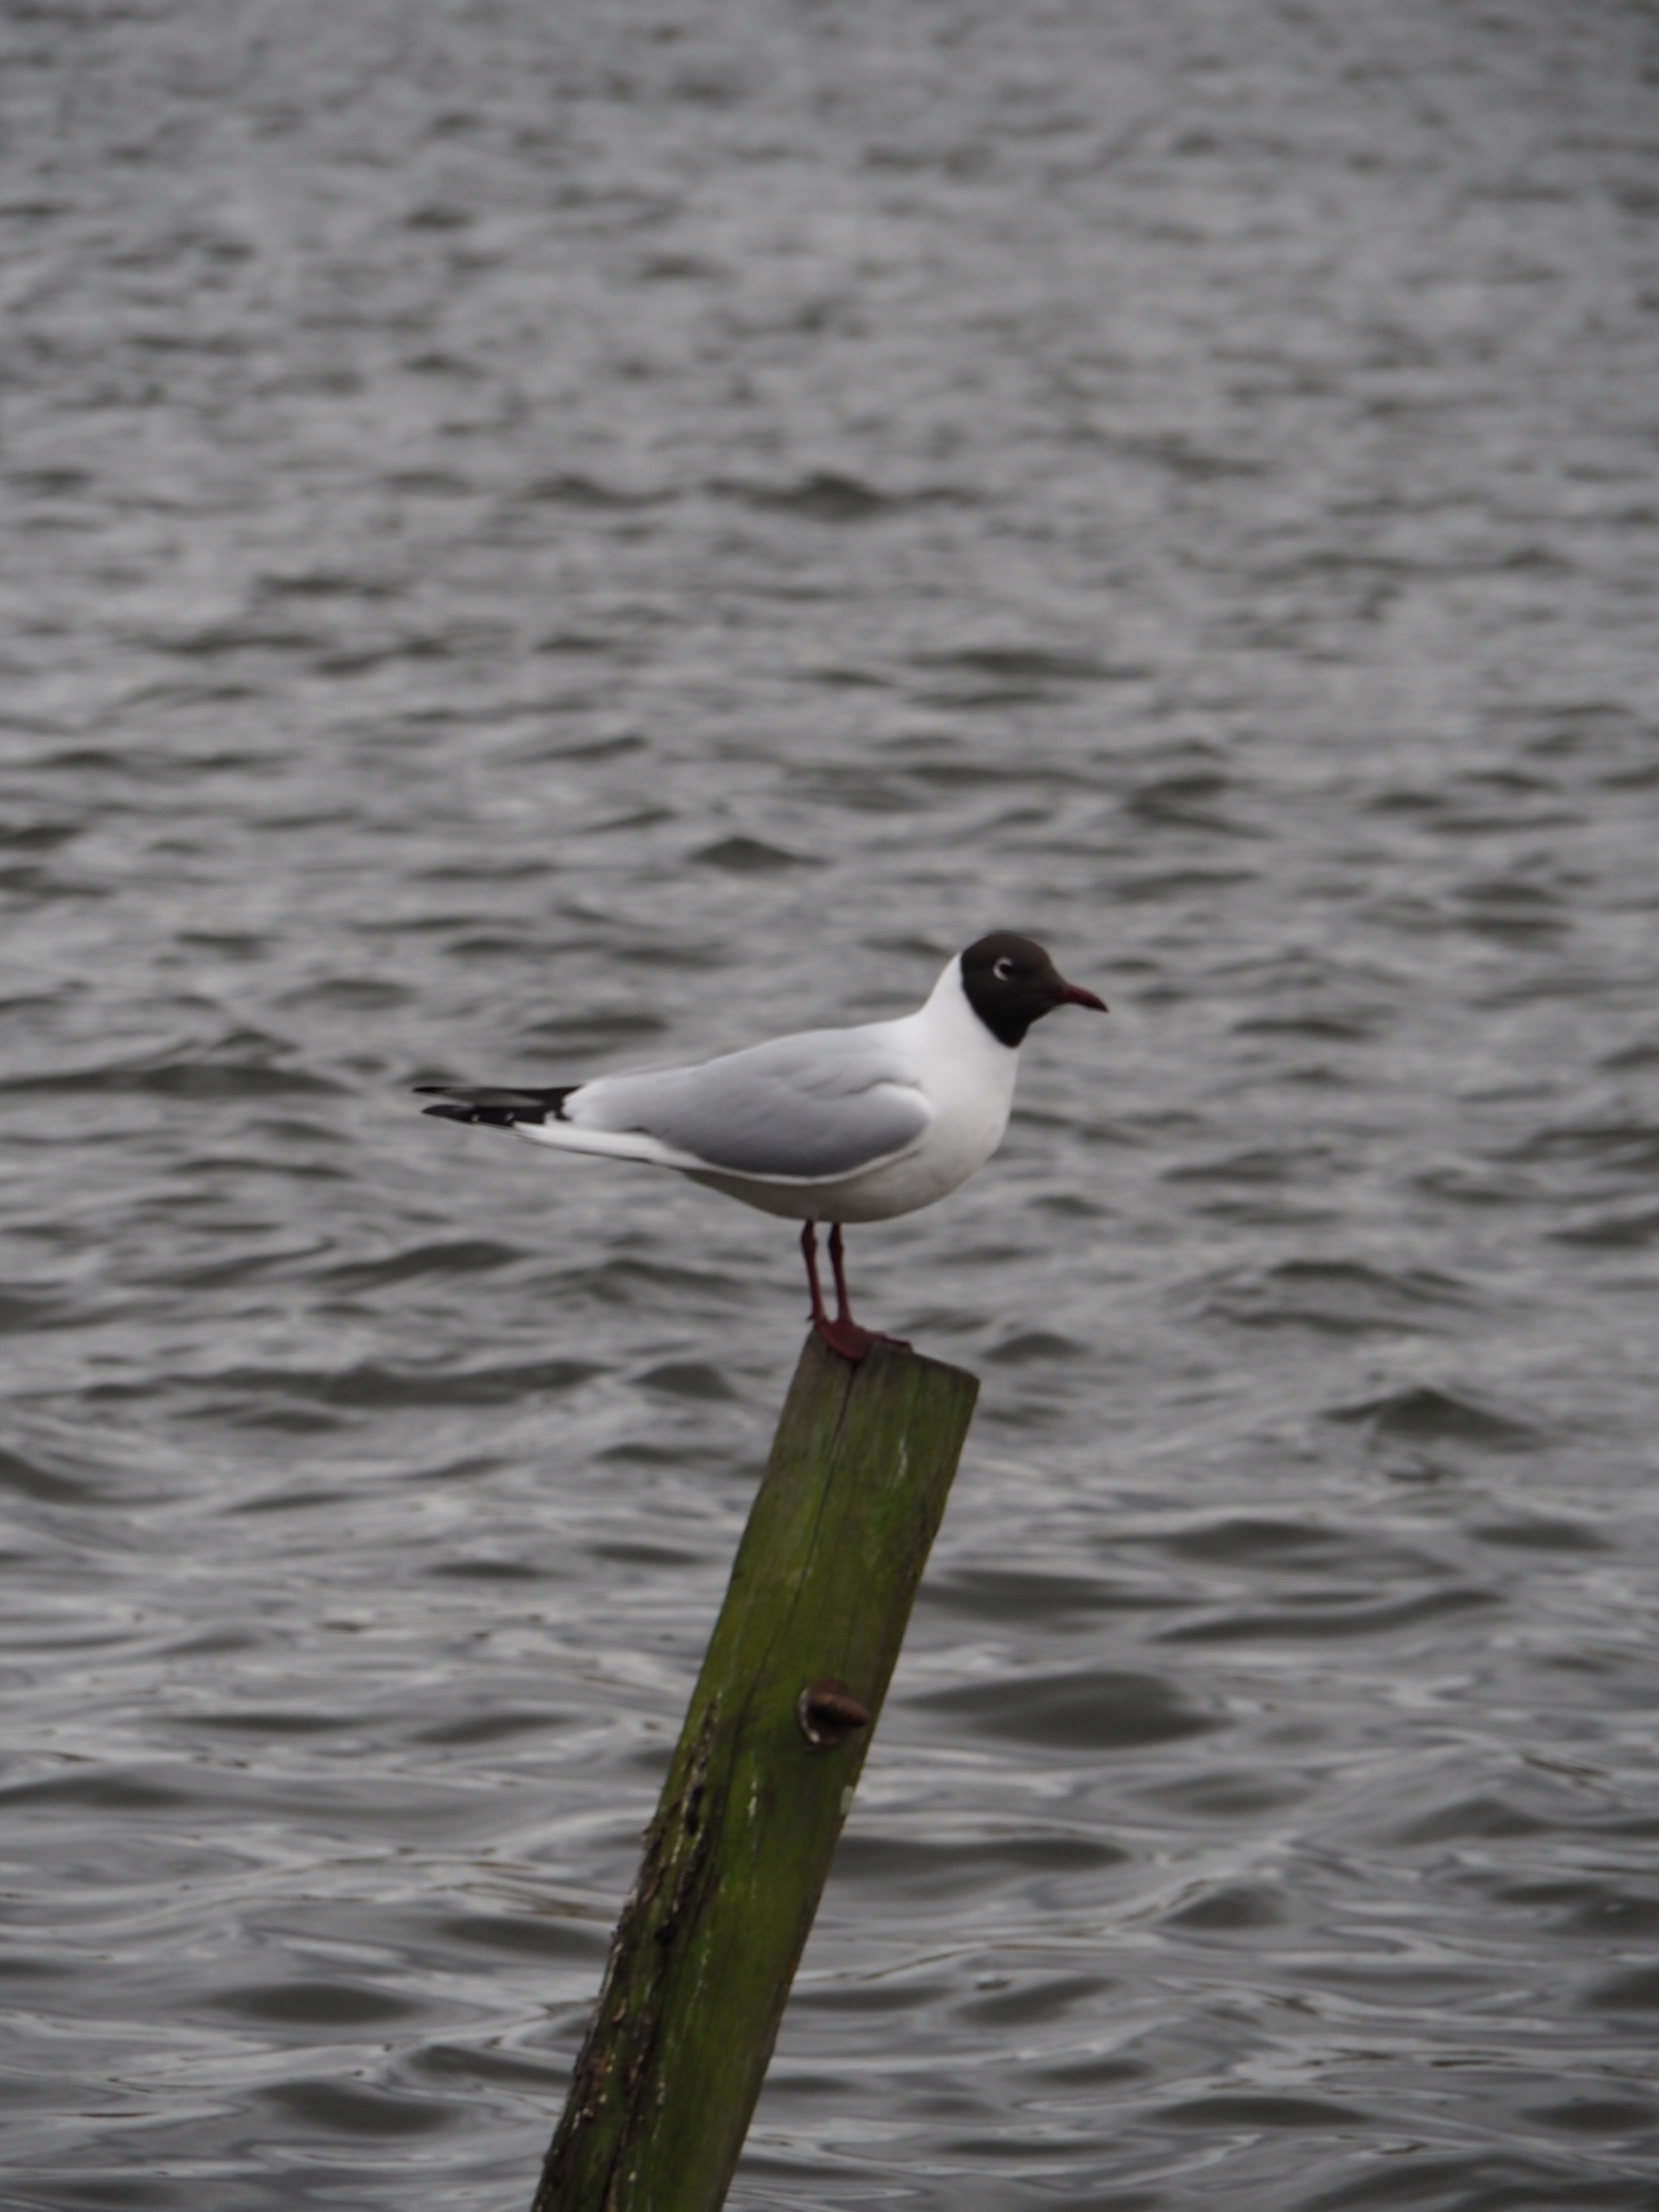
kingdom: Animalia
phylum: Chordata
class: Aves
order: Charadriiformes
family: Laridae
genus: Chroicocephalus
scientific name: Chroicocephalus ridibundus
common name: Hættemåge
